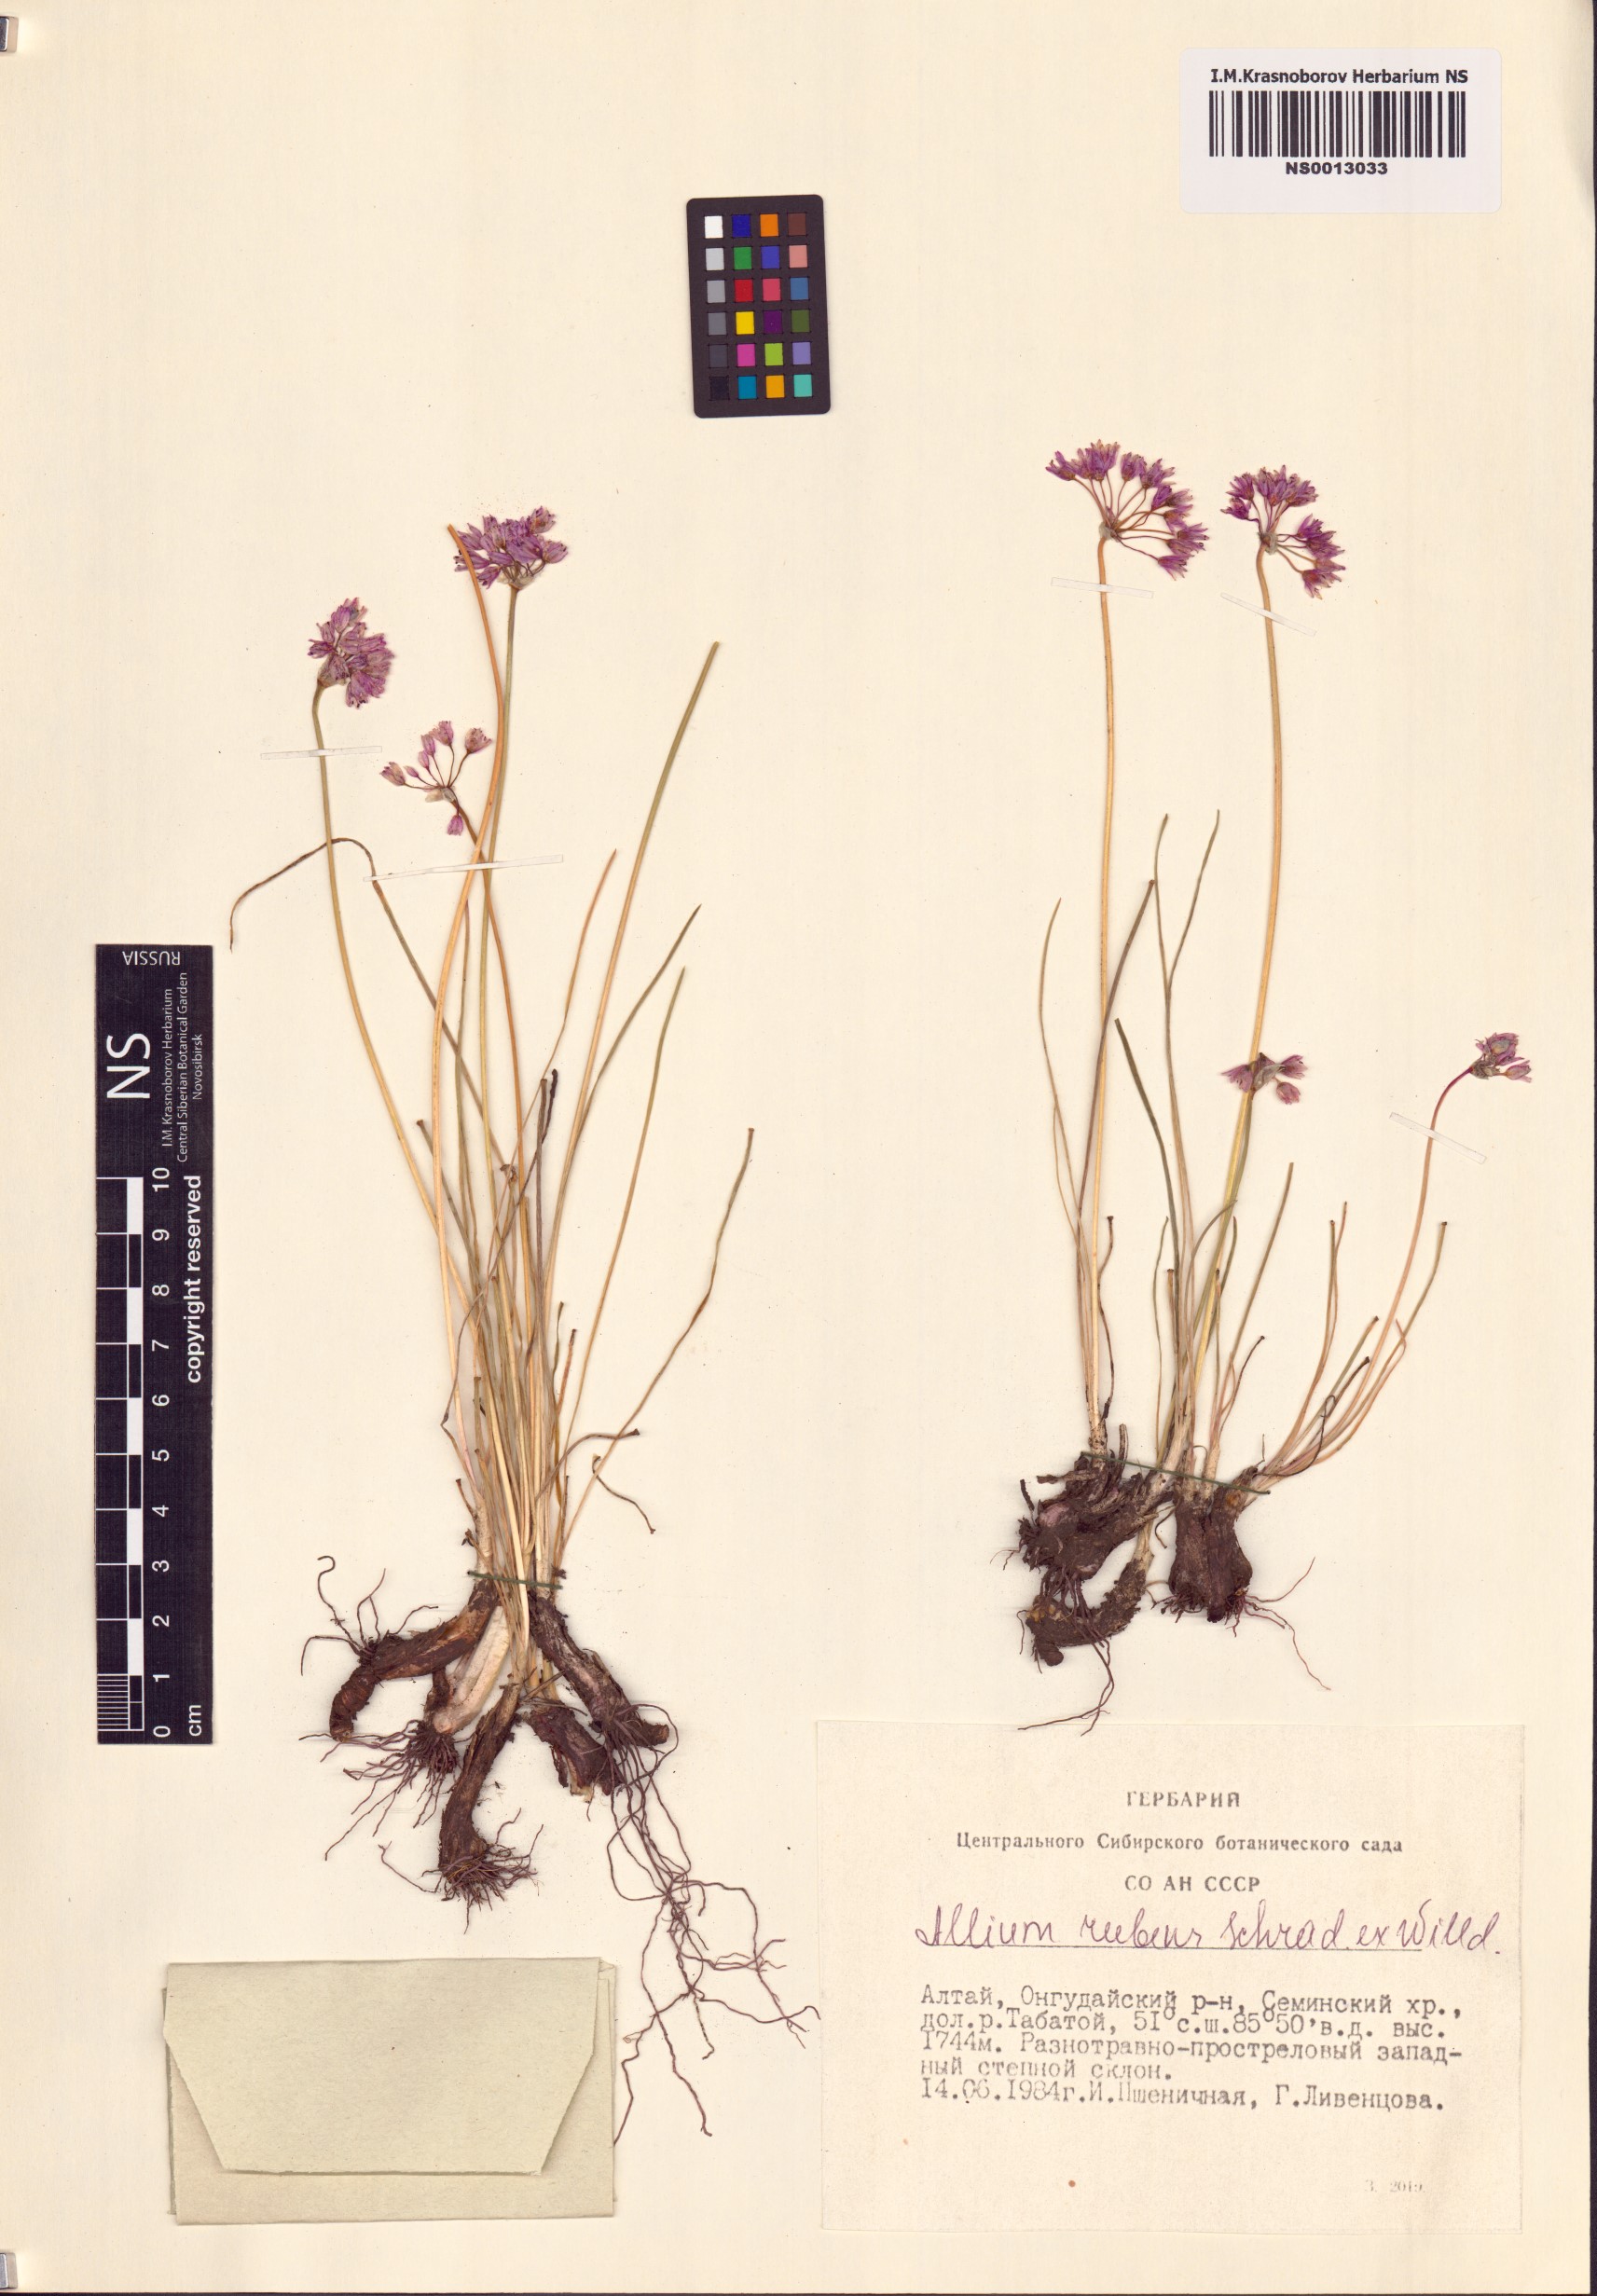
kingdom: Plantae
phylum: Tracheophyta
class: Liliopsida
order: Asparagales
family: Amaryllidaceae
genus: Allium
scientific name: Allium rubens
